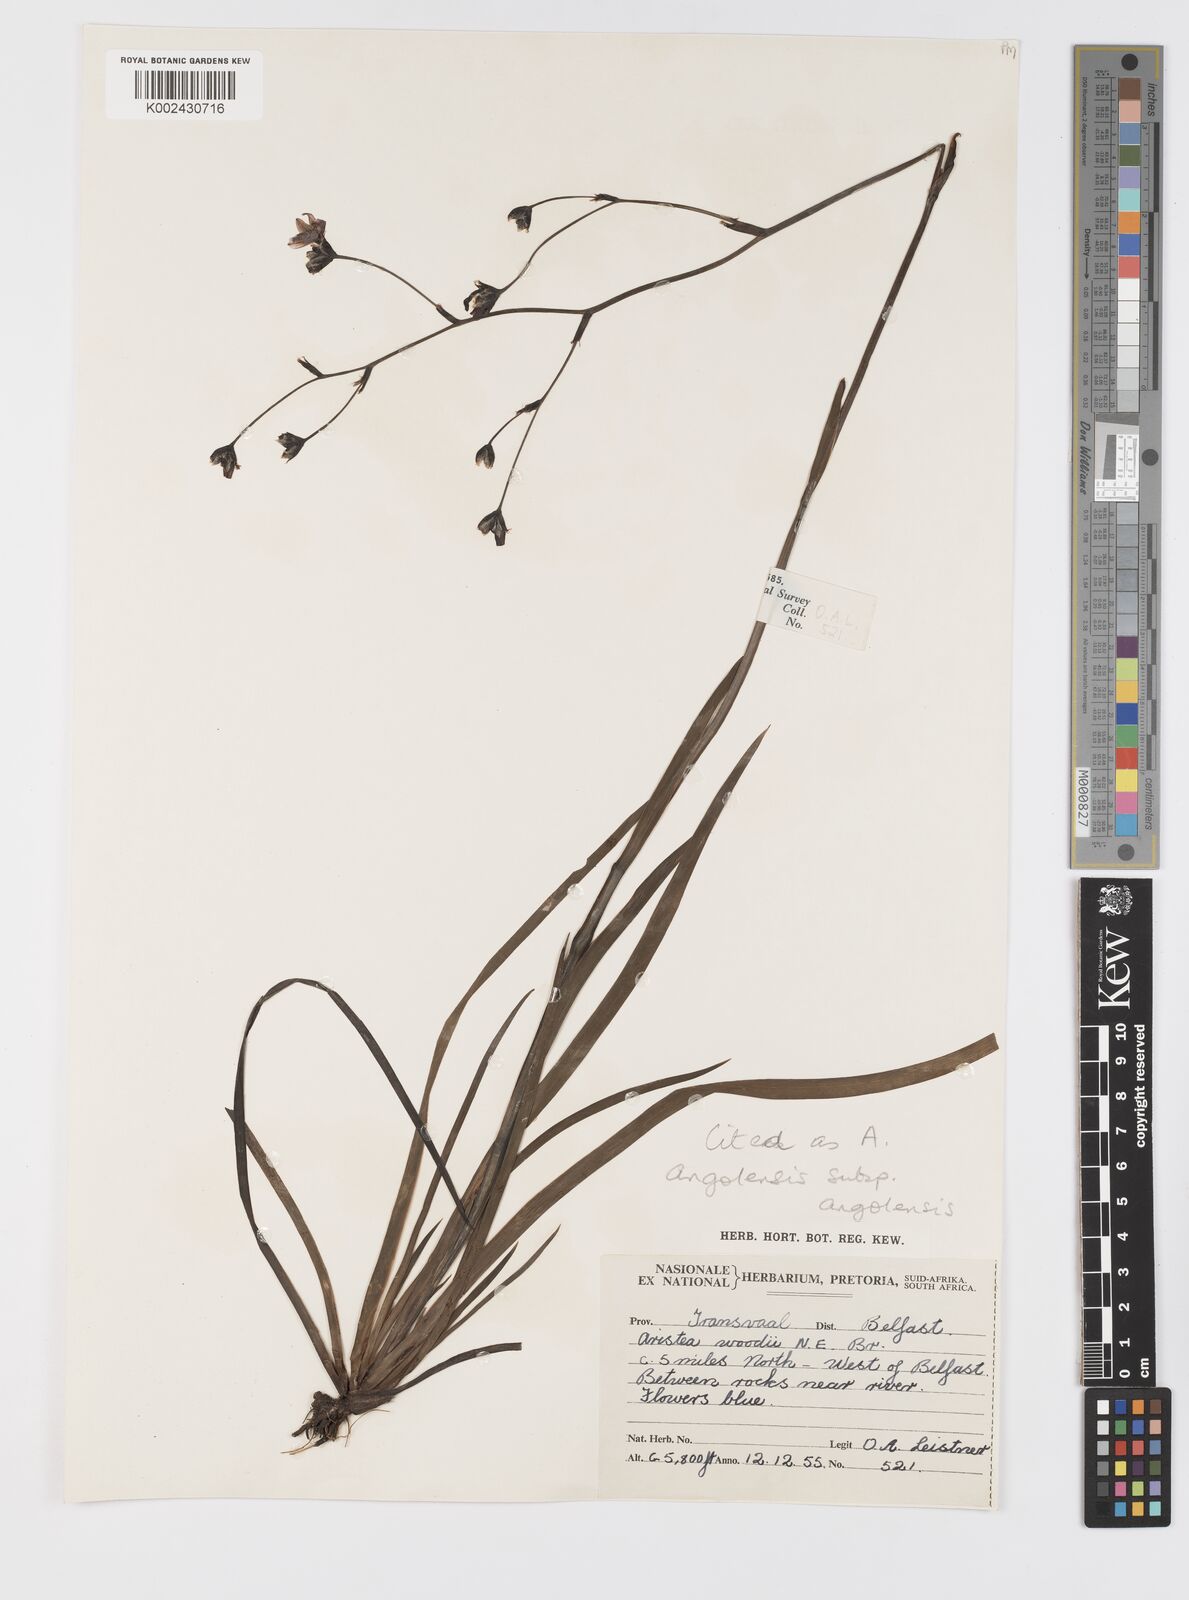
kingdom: Plantae
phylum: Tracheophyta
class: Liliopsida
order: Asparagales
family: Iridaceae
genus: Aristea
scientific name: Aristea angolensis
